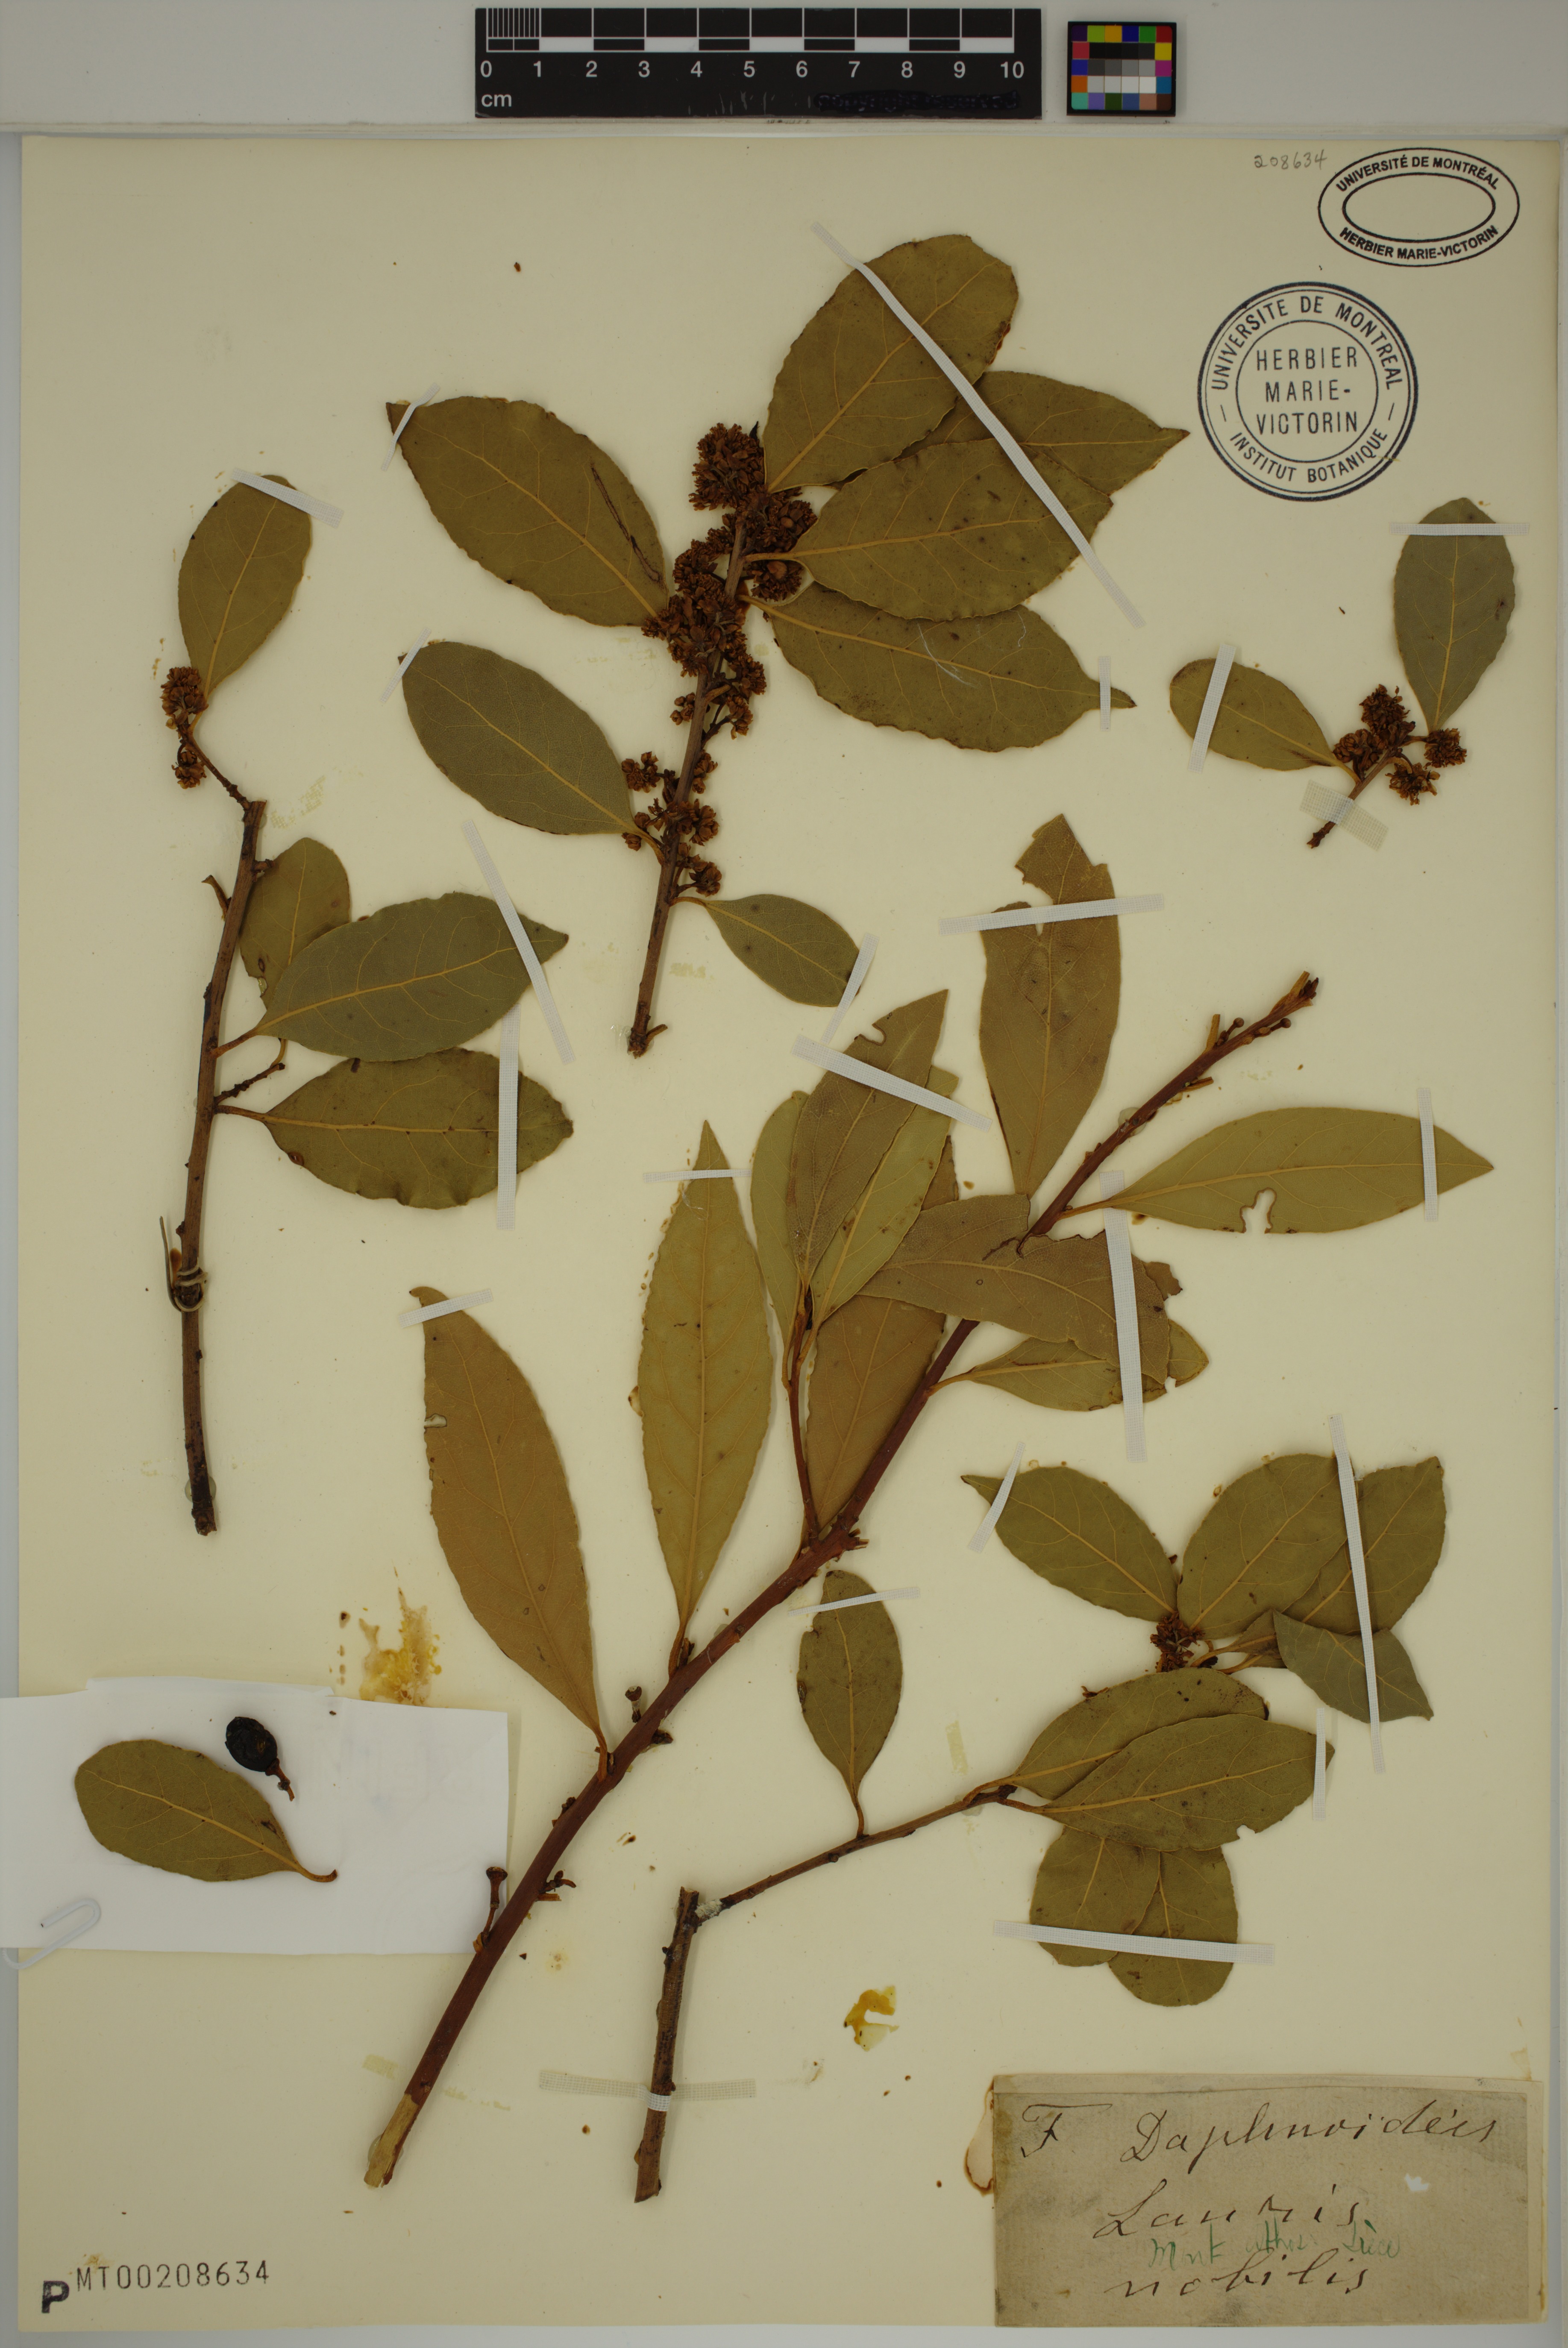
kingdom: Plantae
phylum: Tracheophyta
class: Magnoliopsida
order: Laurales
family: Lauraceae
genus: Laurus
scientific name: Laurus nobilis
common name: Bay
